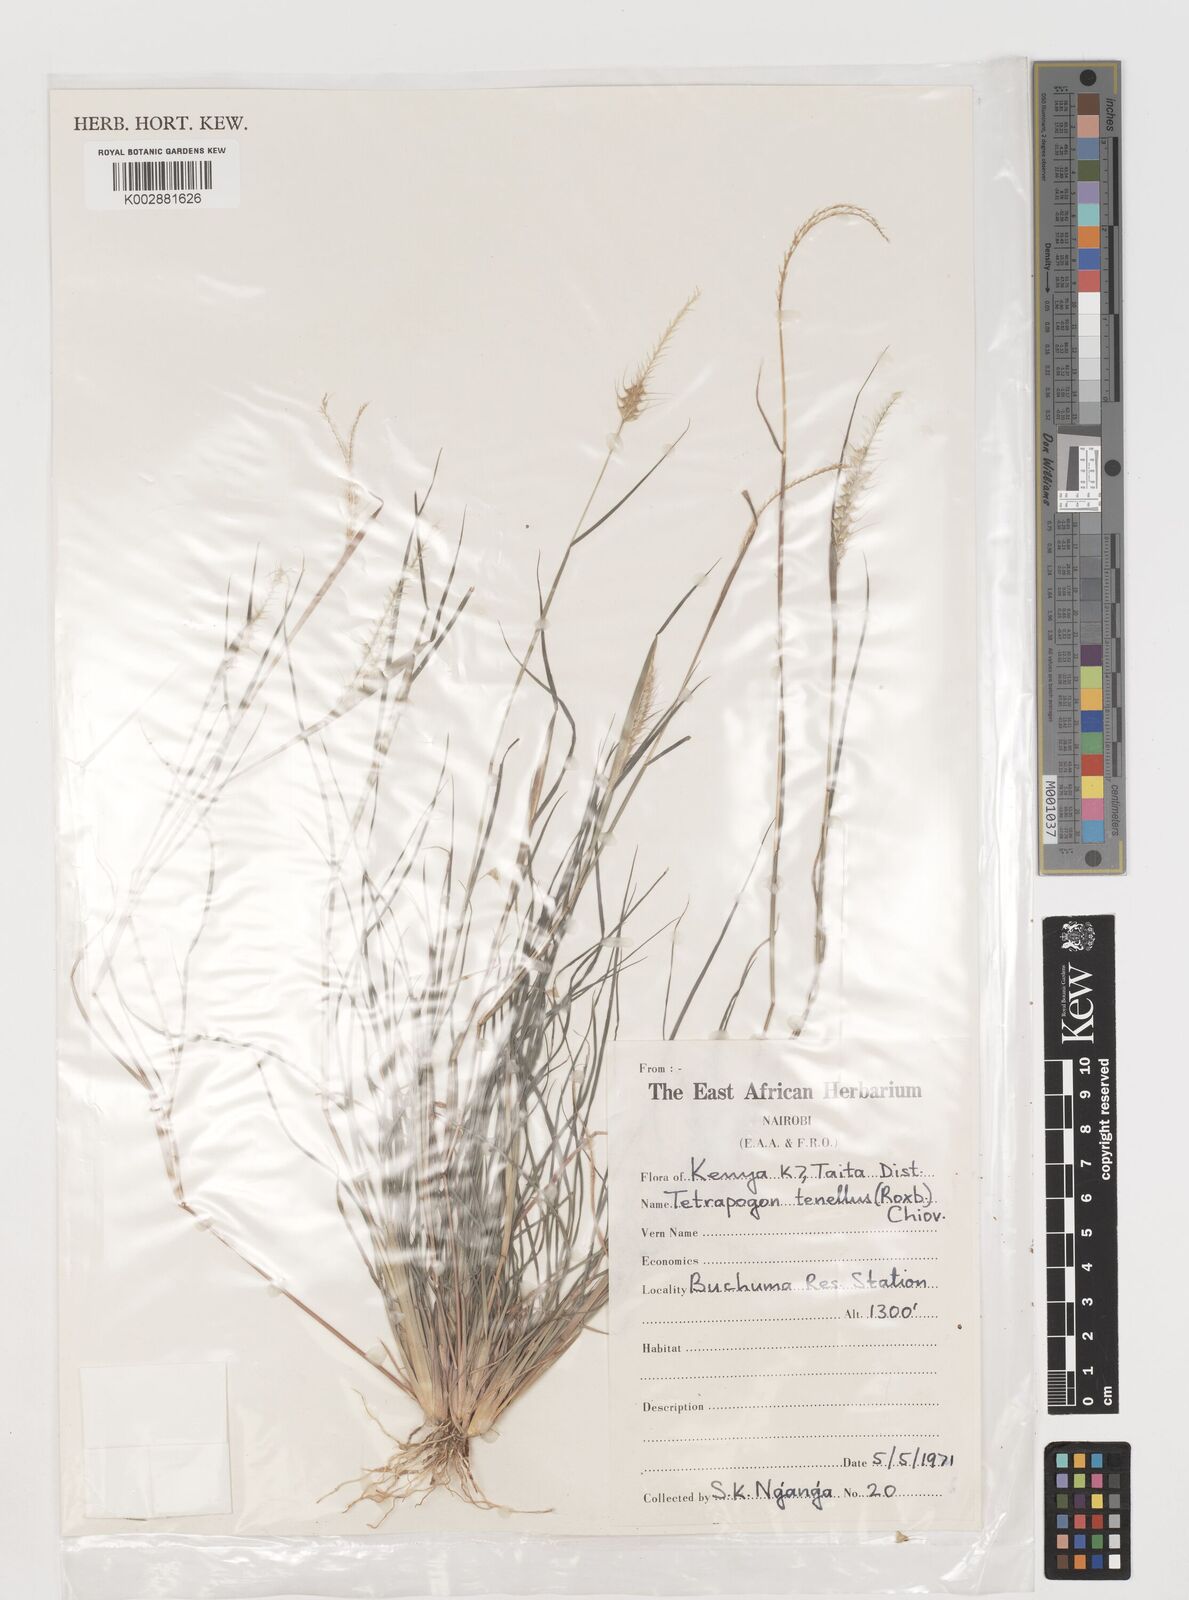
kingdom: Plantae
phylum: Tracheophyta
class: Liliopsida
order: Poales
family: Poaceae
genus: Tetrapogon
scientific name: Tetrapogon tenellus
